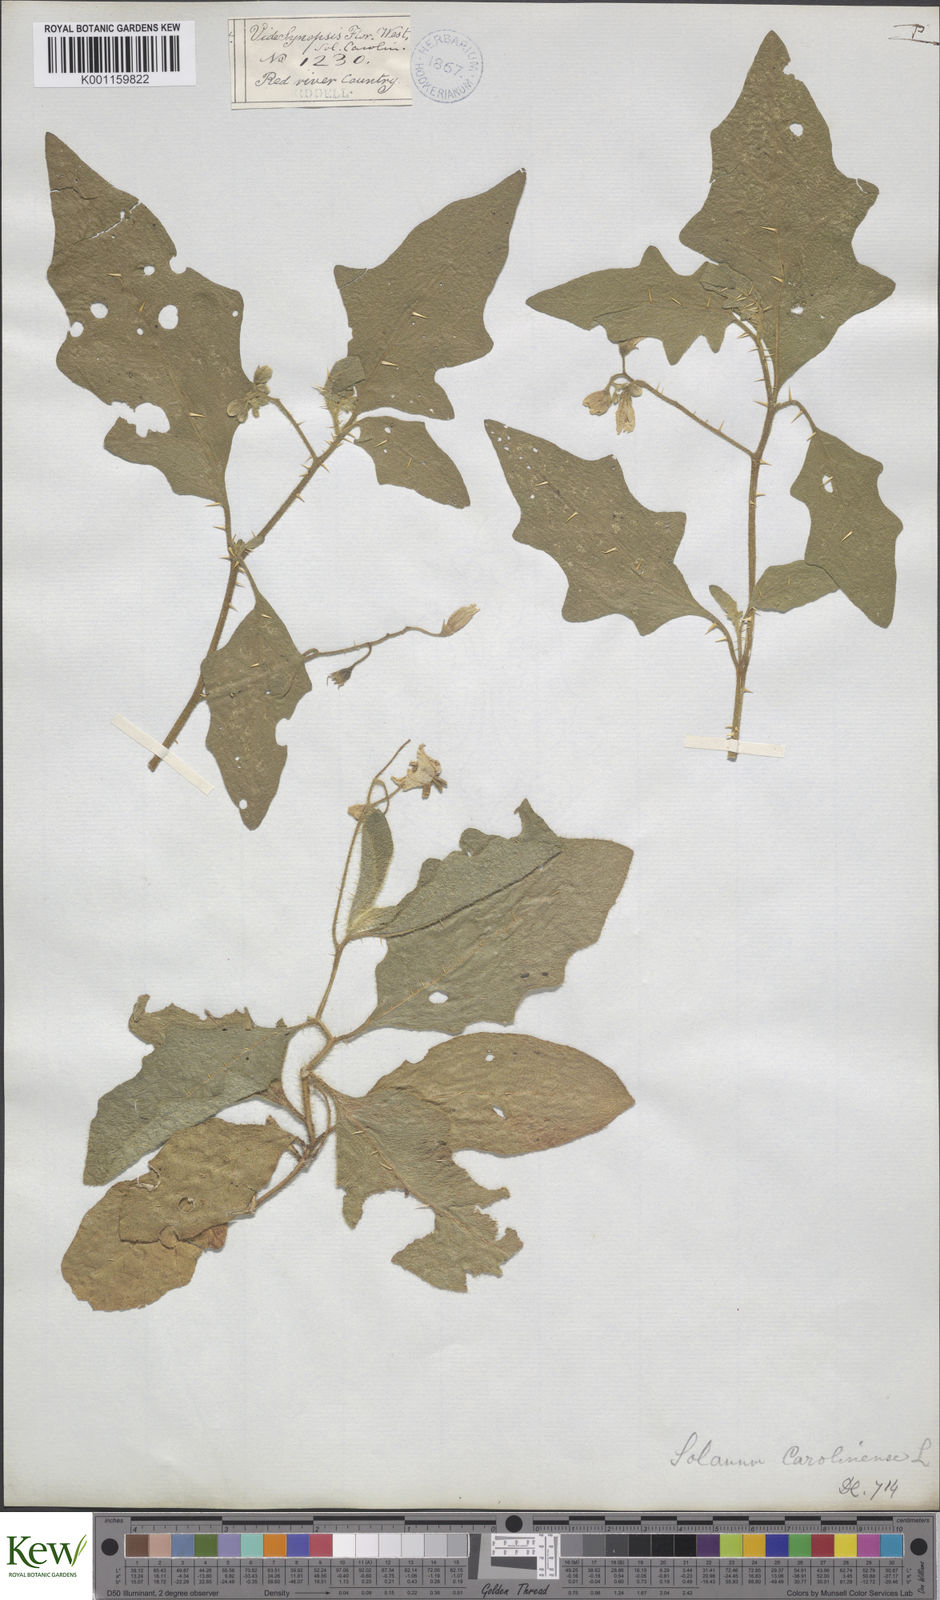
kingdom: Plantae
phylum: Tracheophyta
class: Magnoliopsida
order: Solanales
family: Solanaceae
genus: Solanum
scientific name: Solanum carolinense
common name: Horse-nettle
